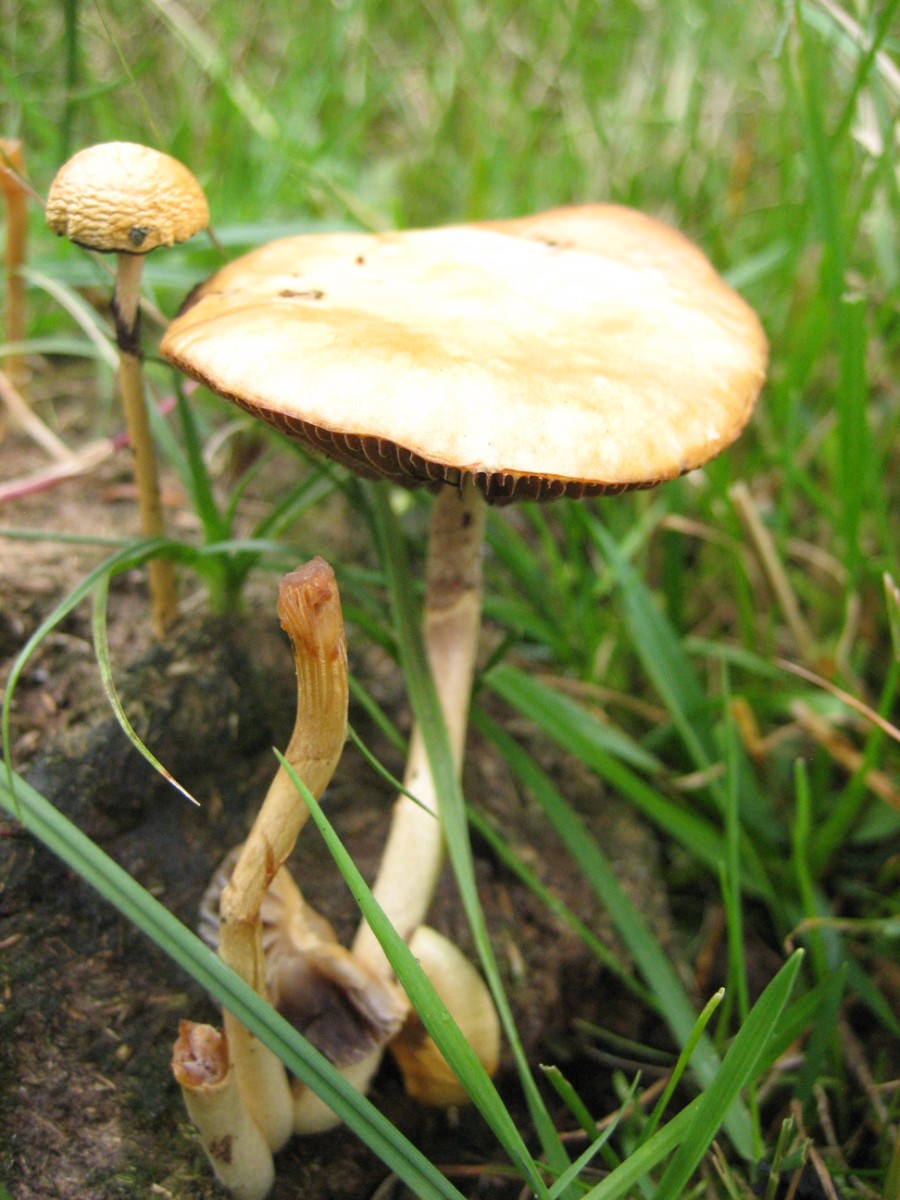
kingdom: Fungi
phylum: Basidiomycota
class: Agaricomycetes
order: Agaricales
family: Strophariaceae
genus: Protostropharia
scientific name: Protostropharia semiglobata
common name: halvkugleformet bredblad
